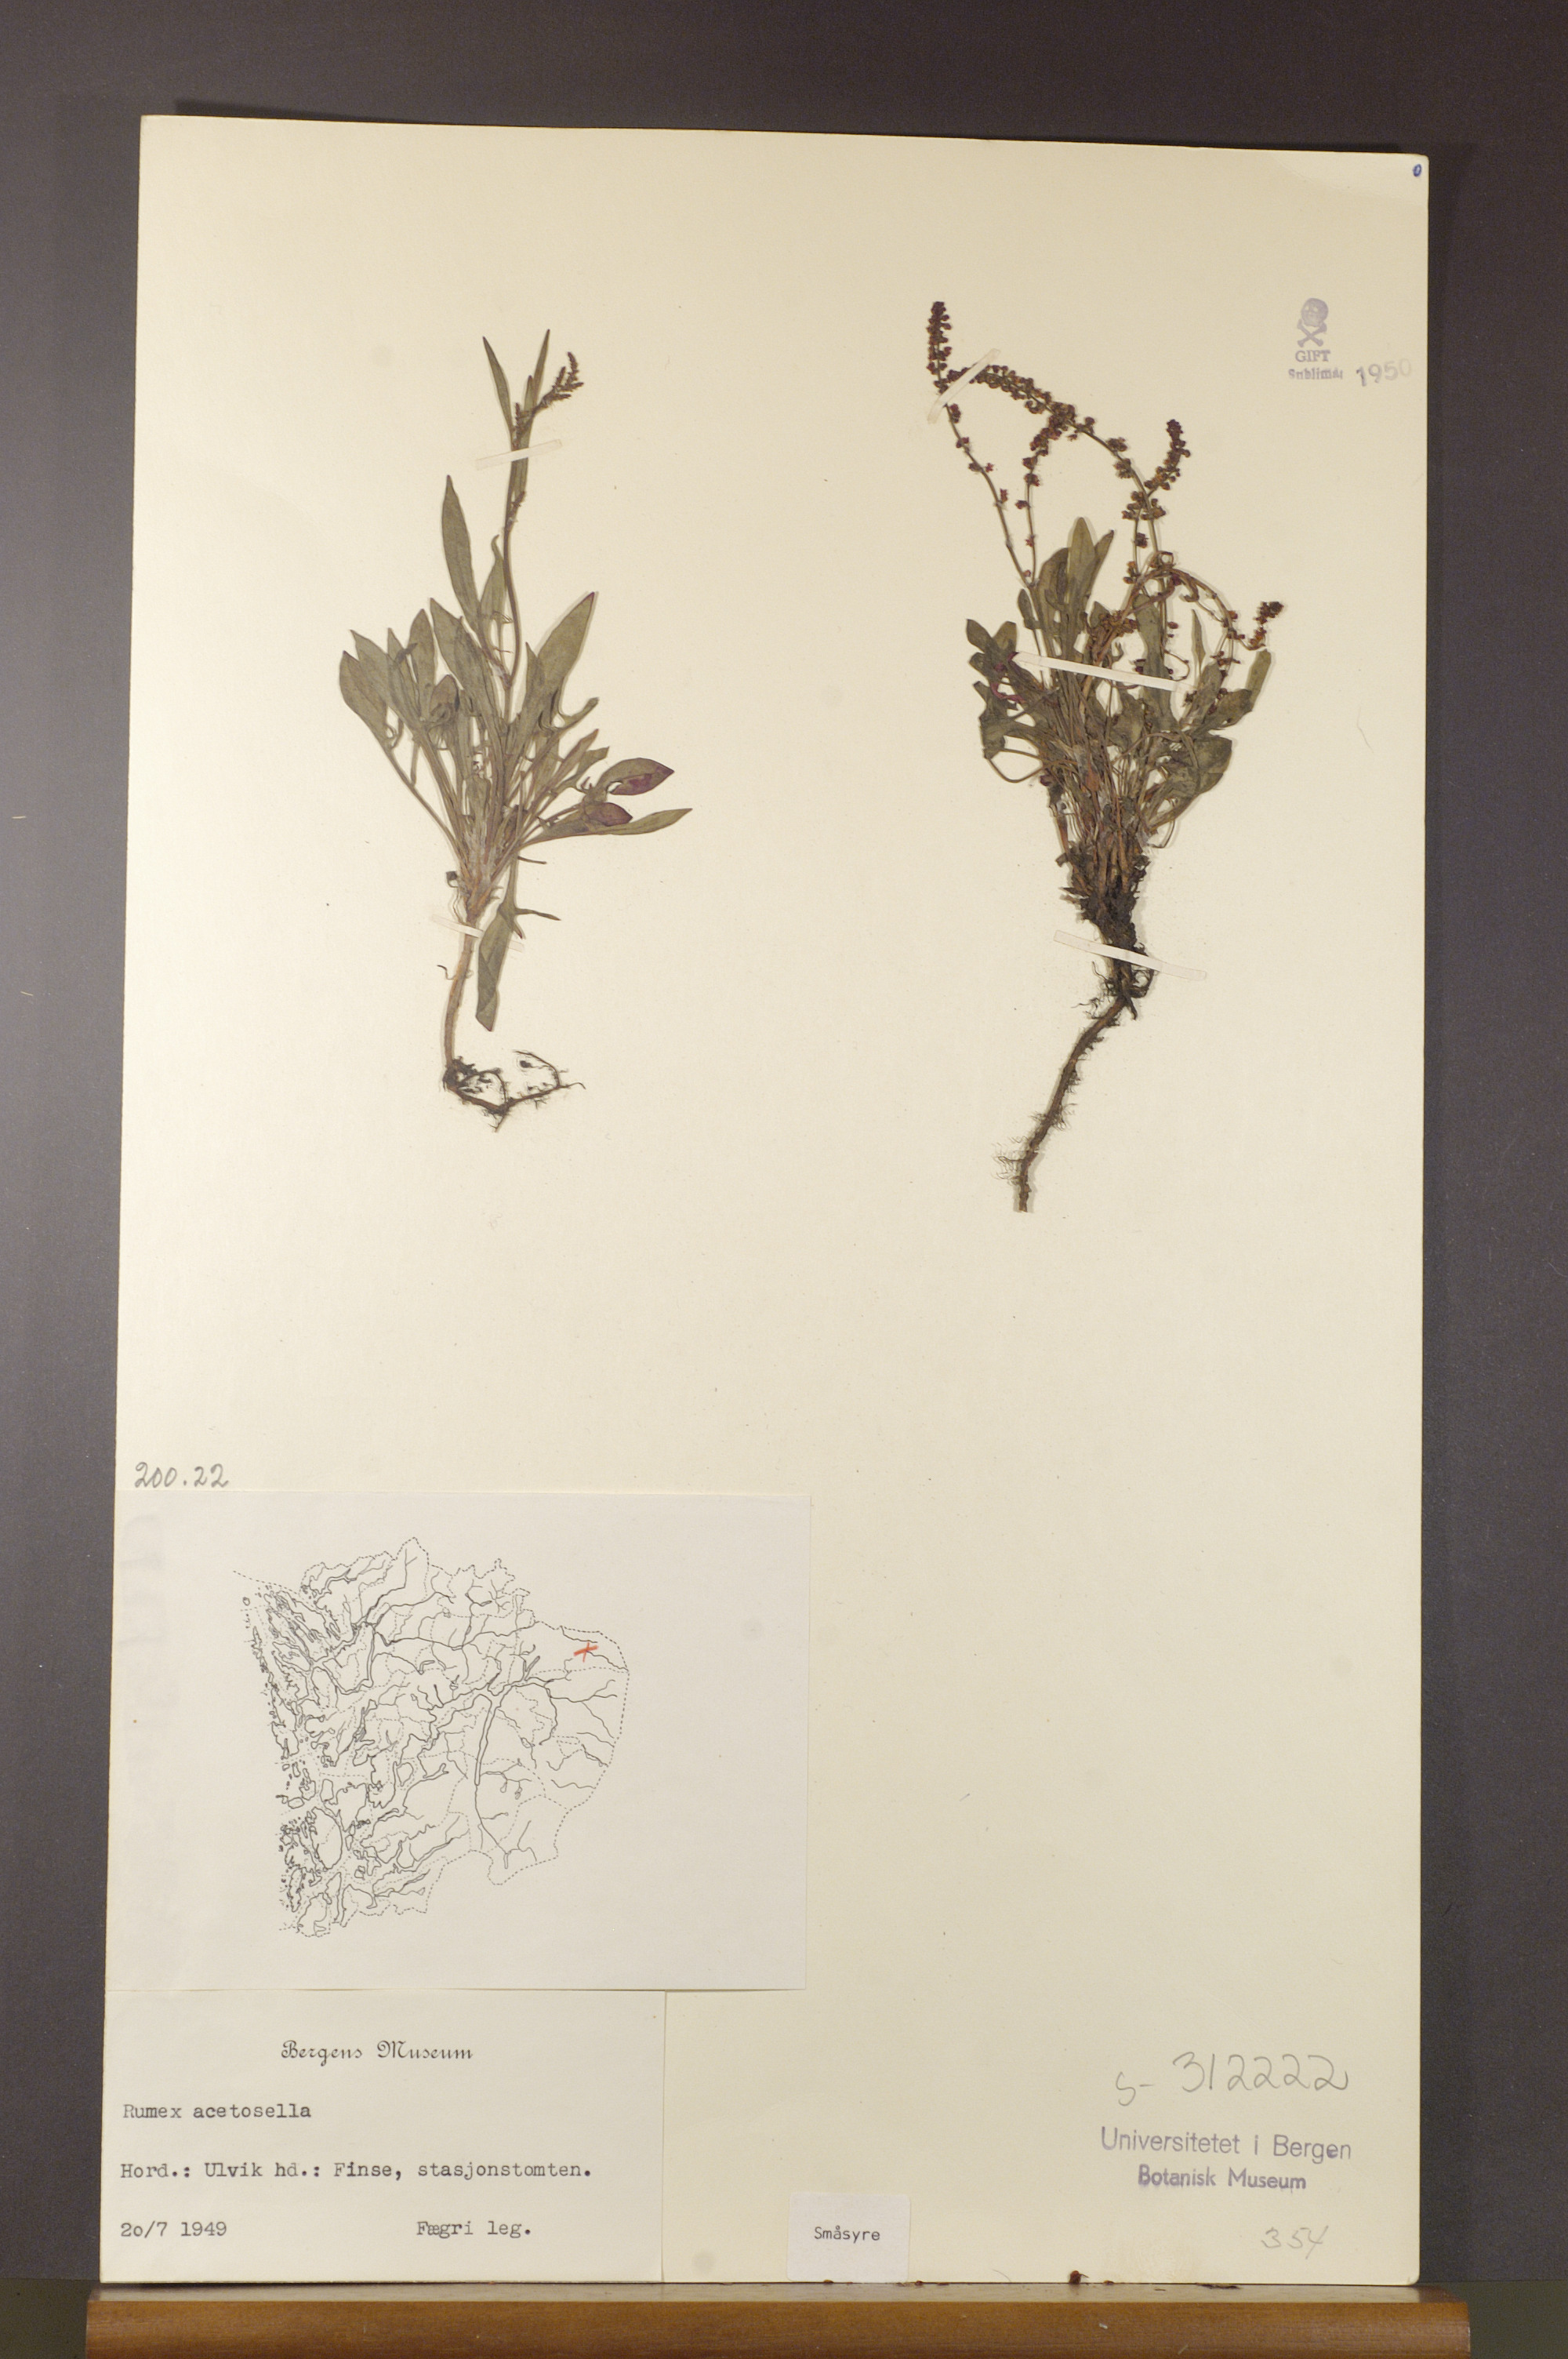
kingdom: Plantae
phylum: Tracheophyta
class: Magnoliopsida
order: Caryophyllales
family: Polygonaceae
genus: Rumex
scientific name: Rumex acetosella
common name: Common sheep sorrel
